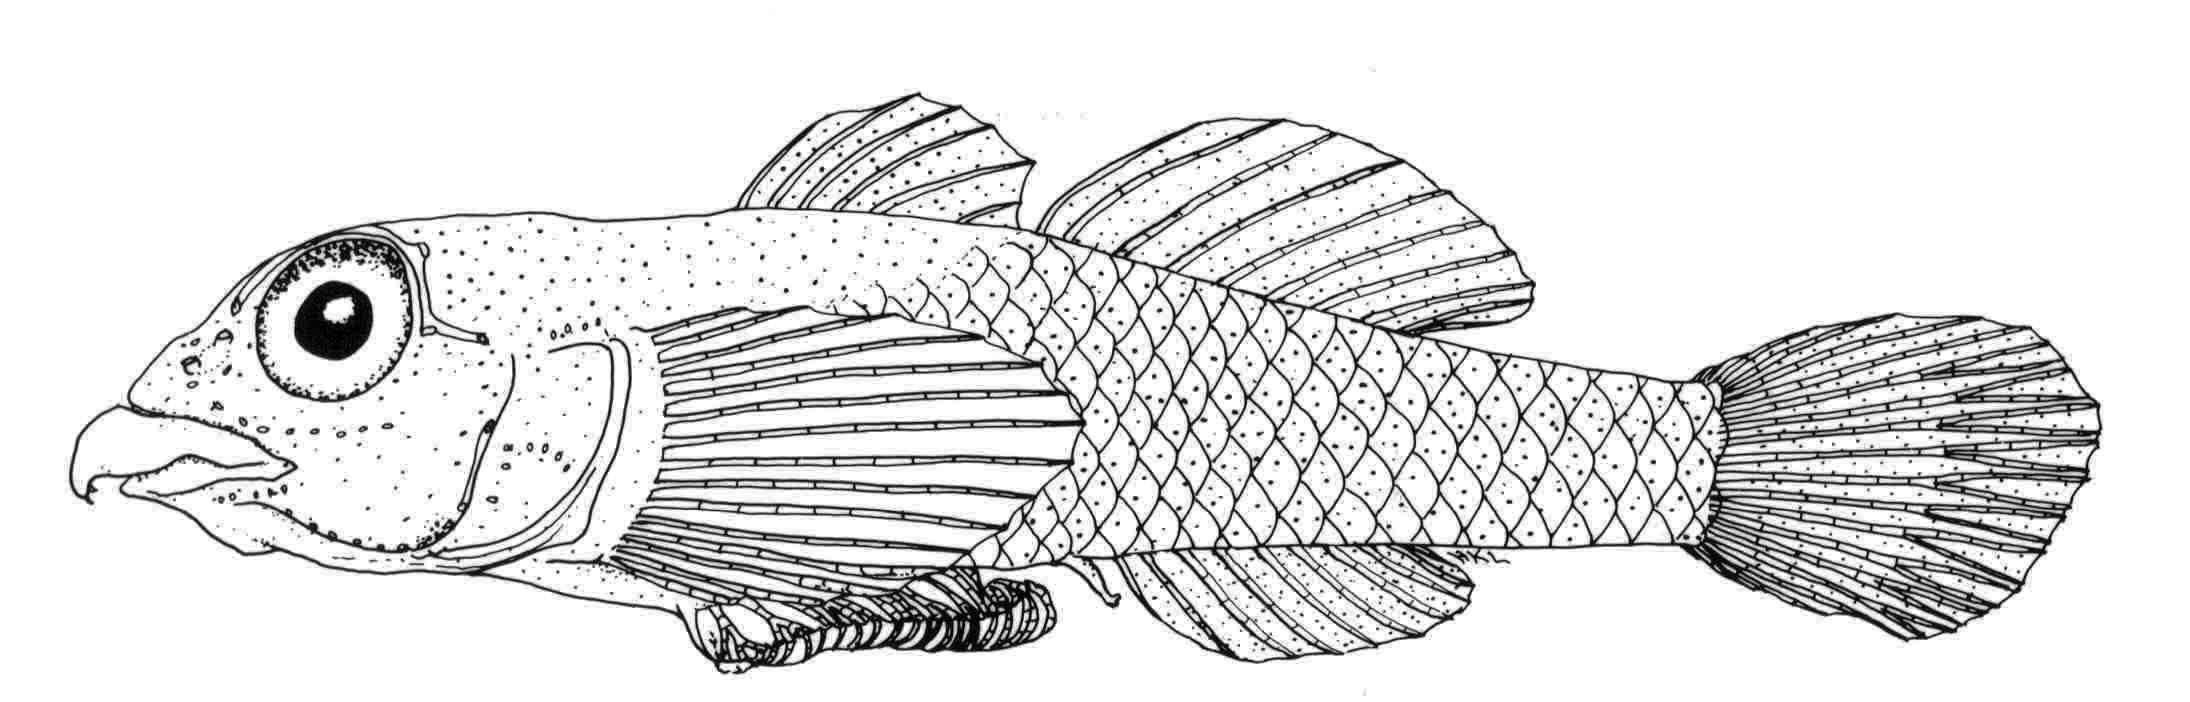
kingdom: Animalia
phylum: Chordata
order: Perciformes
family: Gobiidae
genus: Pleurosicya
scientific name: Pleurosicya
